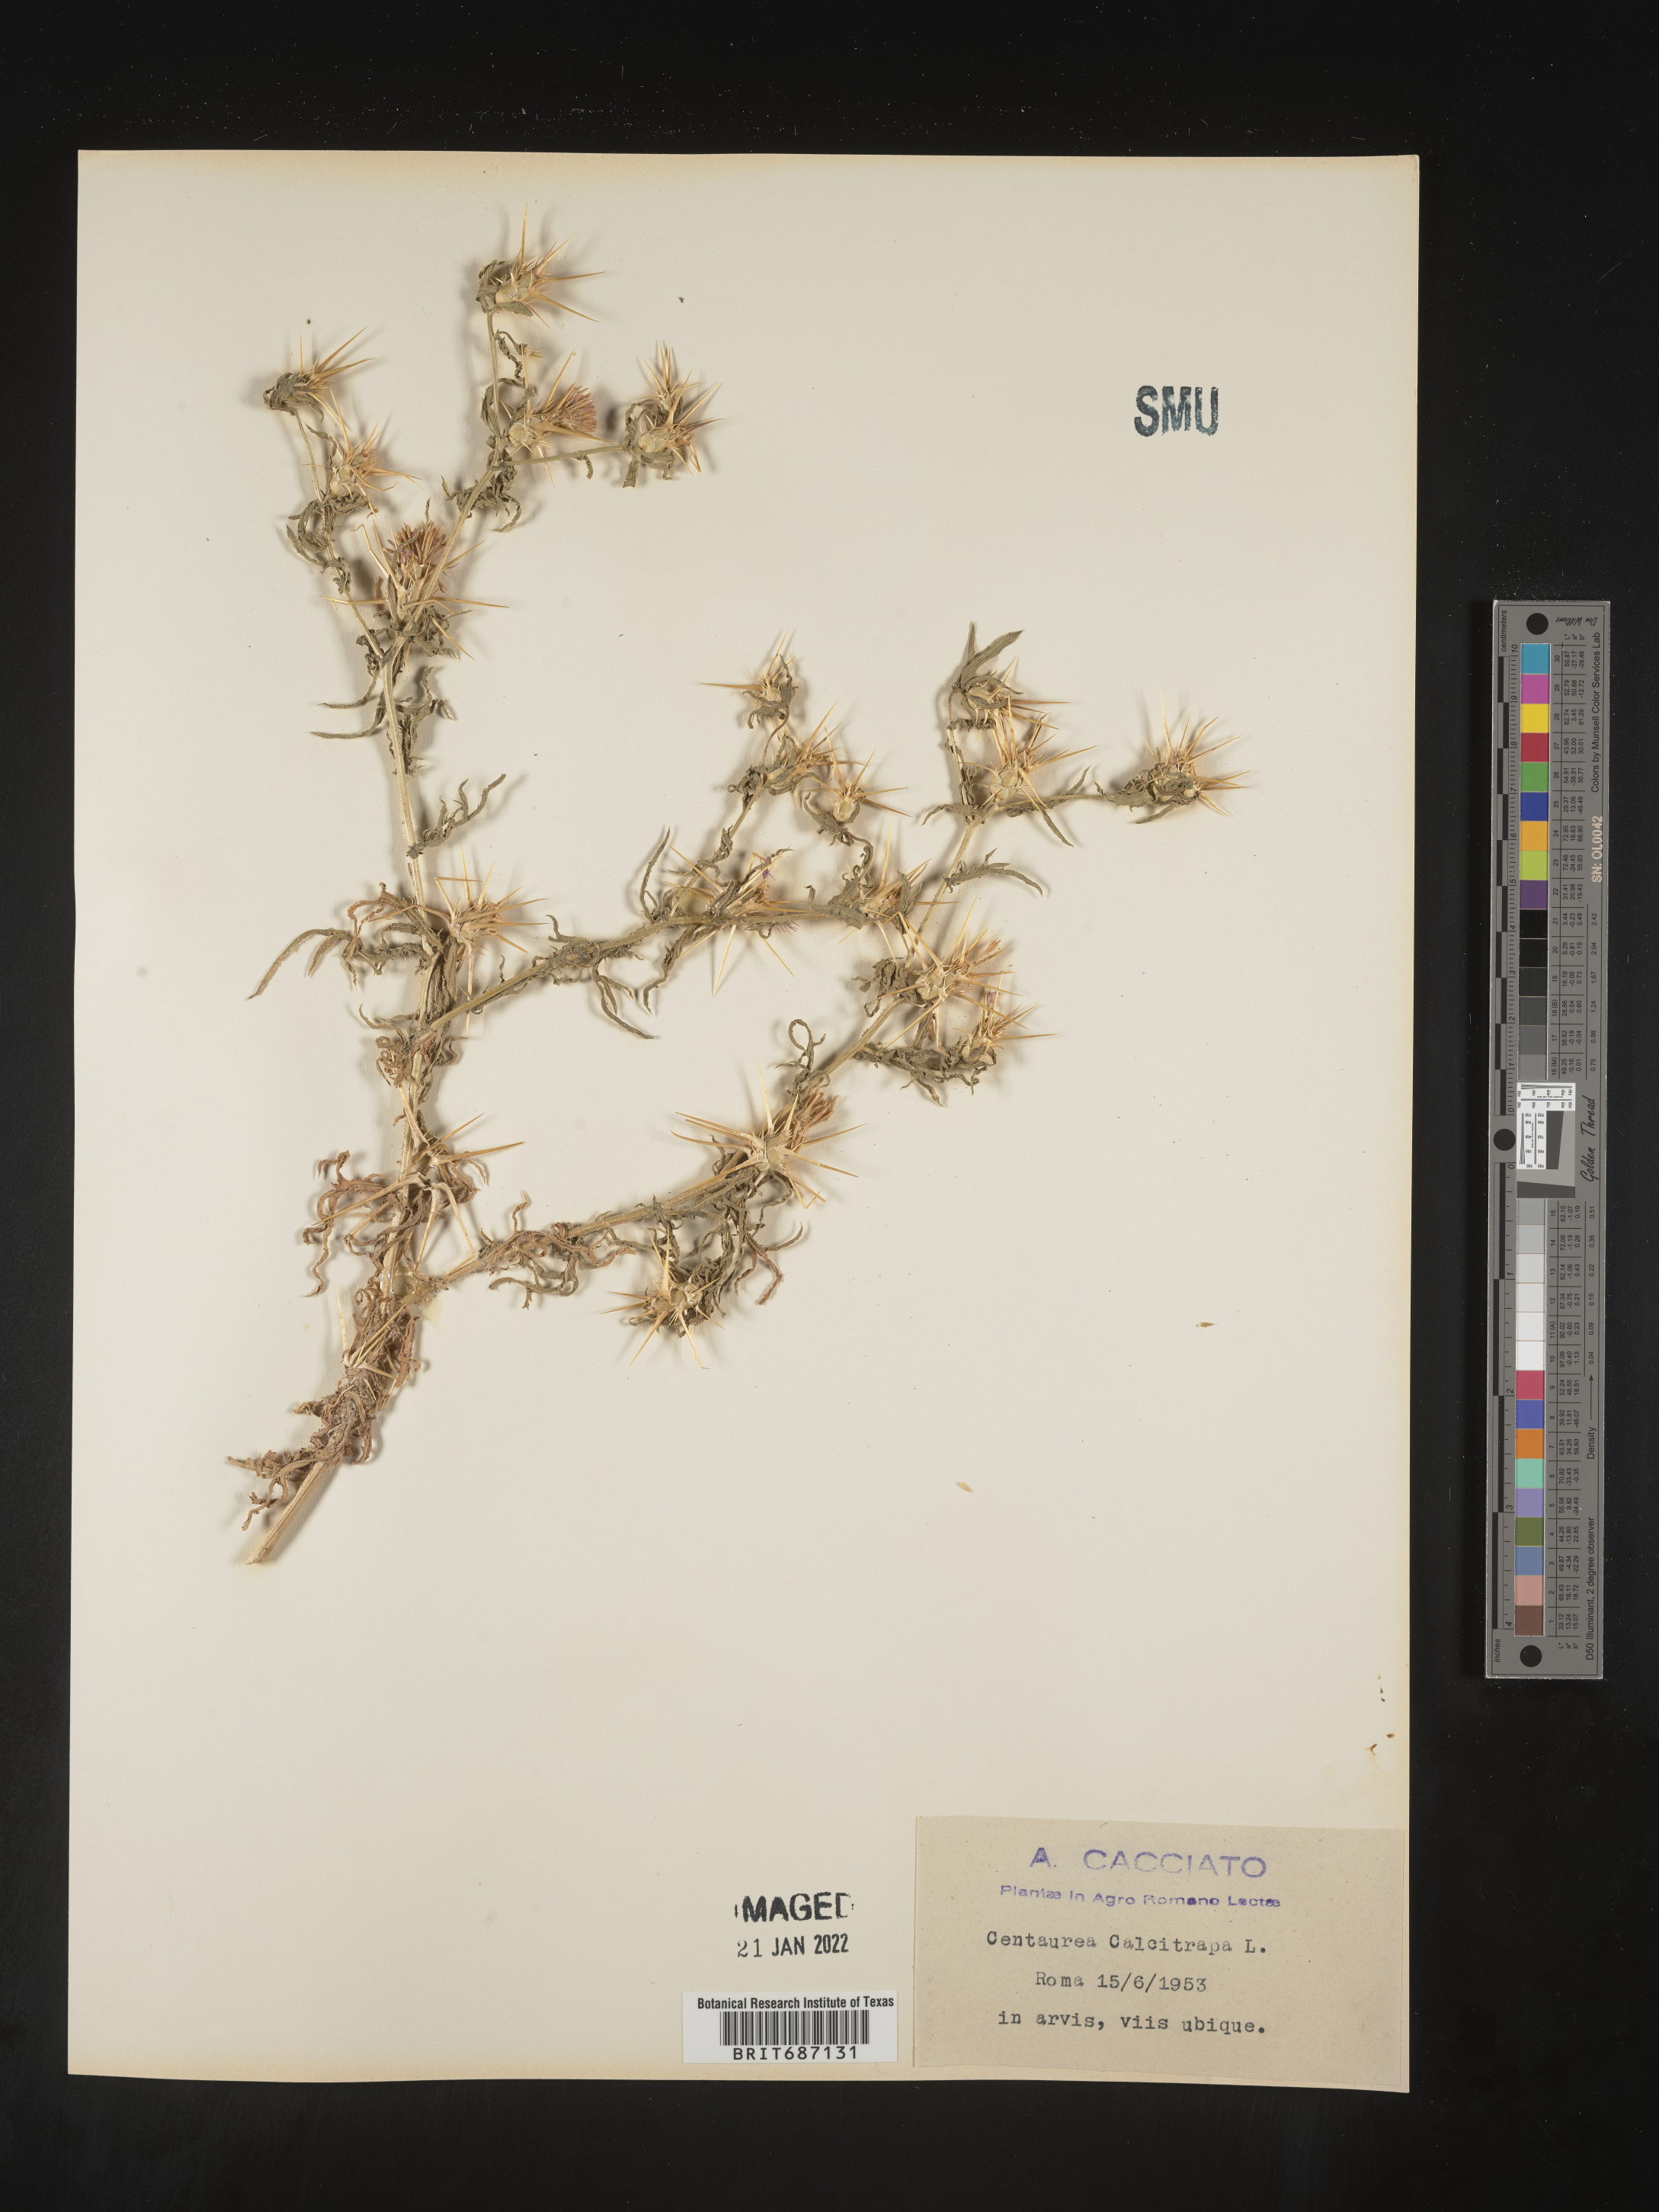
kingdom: Plantae
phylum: Tracheophyta
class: Magnoliopsida
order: Asterales
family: Asteraceae
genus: Centaurea
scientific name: Centaurea
